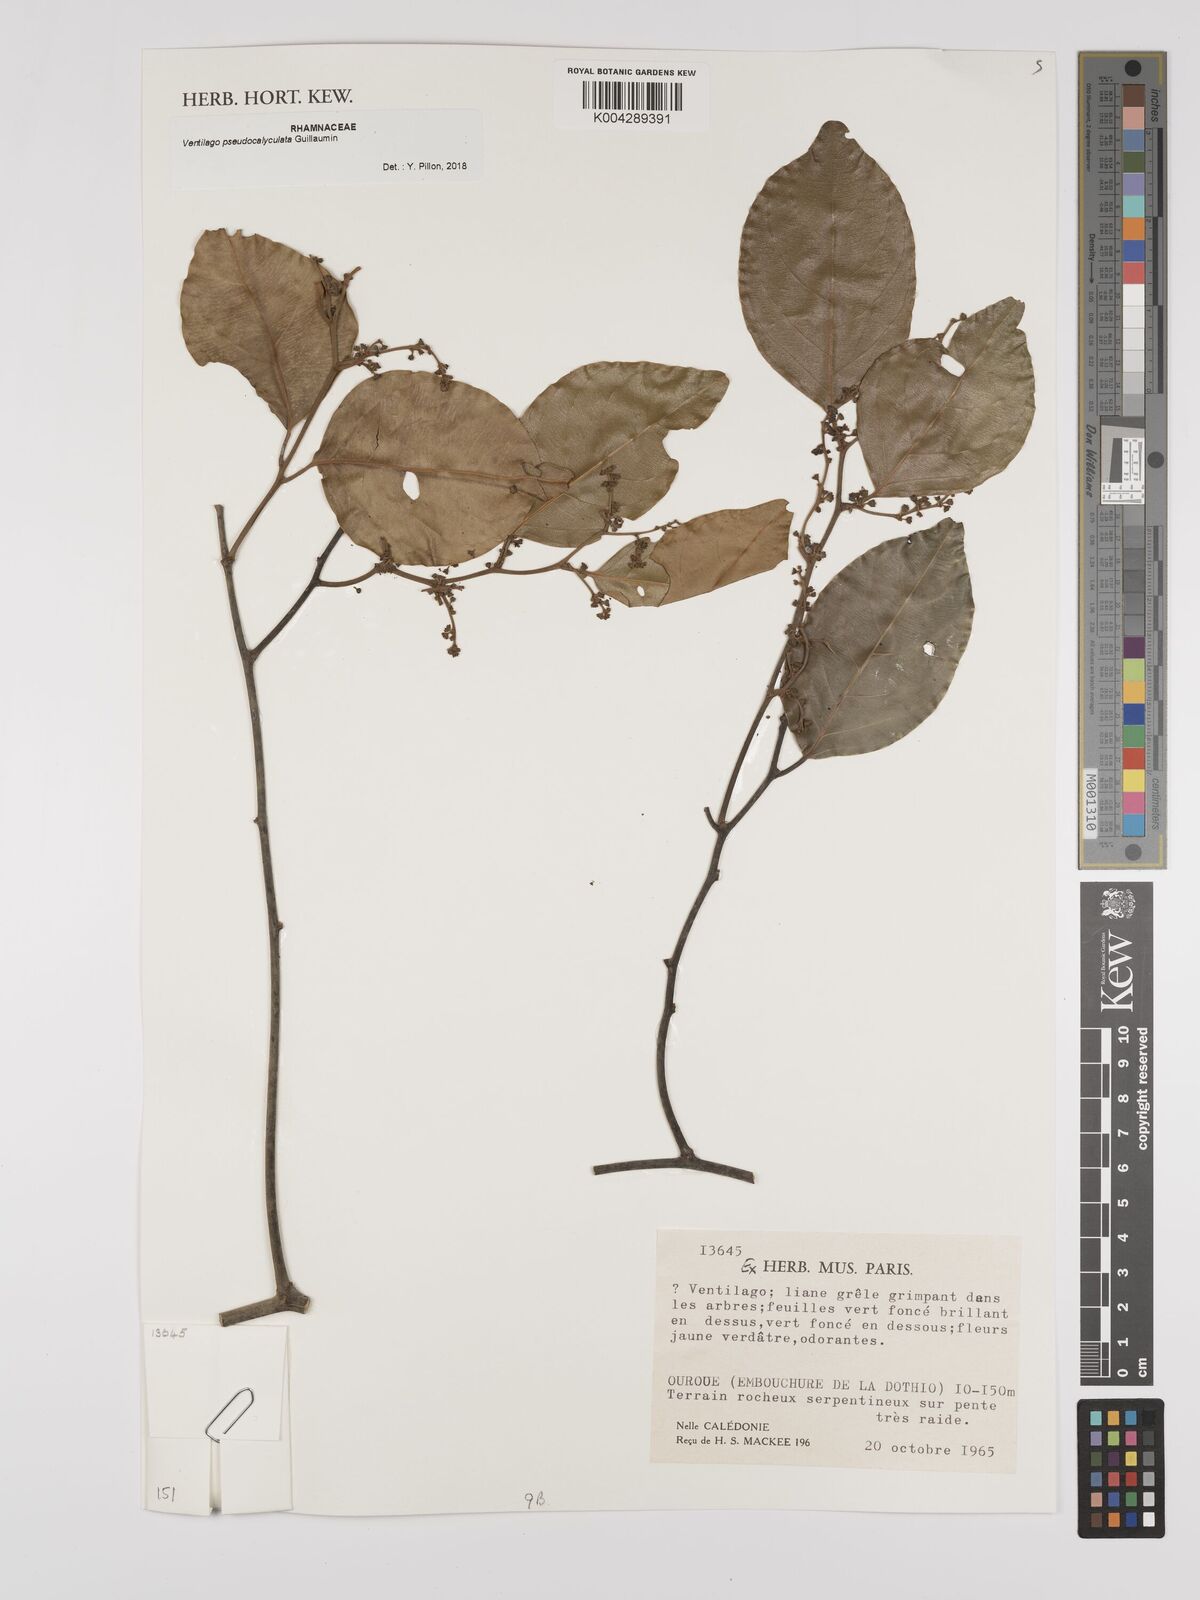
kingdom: Plantae
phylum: Tracheophyta
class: Magnoliopsida
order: Rosales
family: Rhamnaceae
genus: Ventilago
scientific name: Ventilago pseudocalyculata
